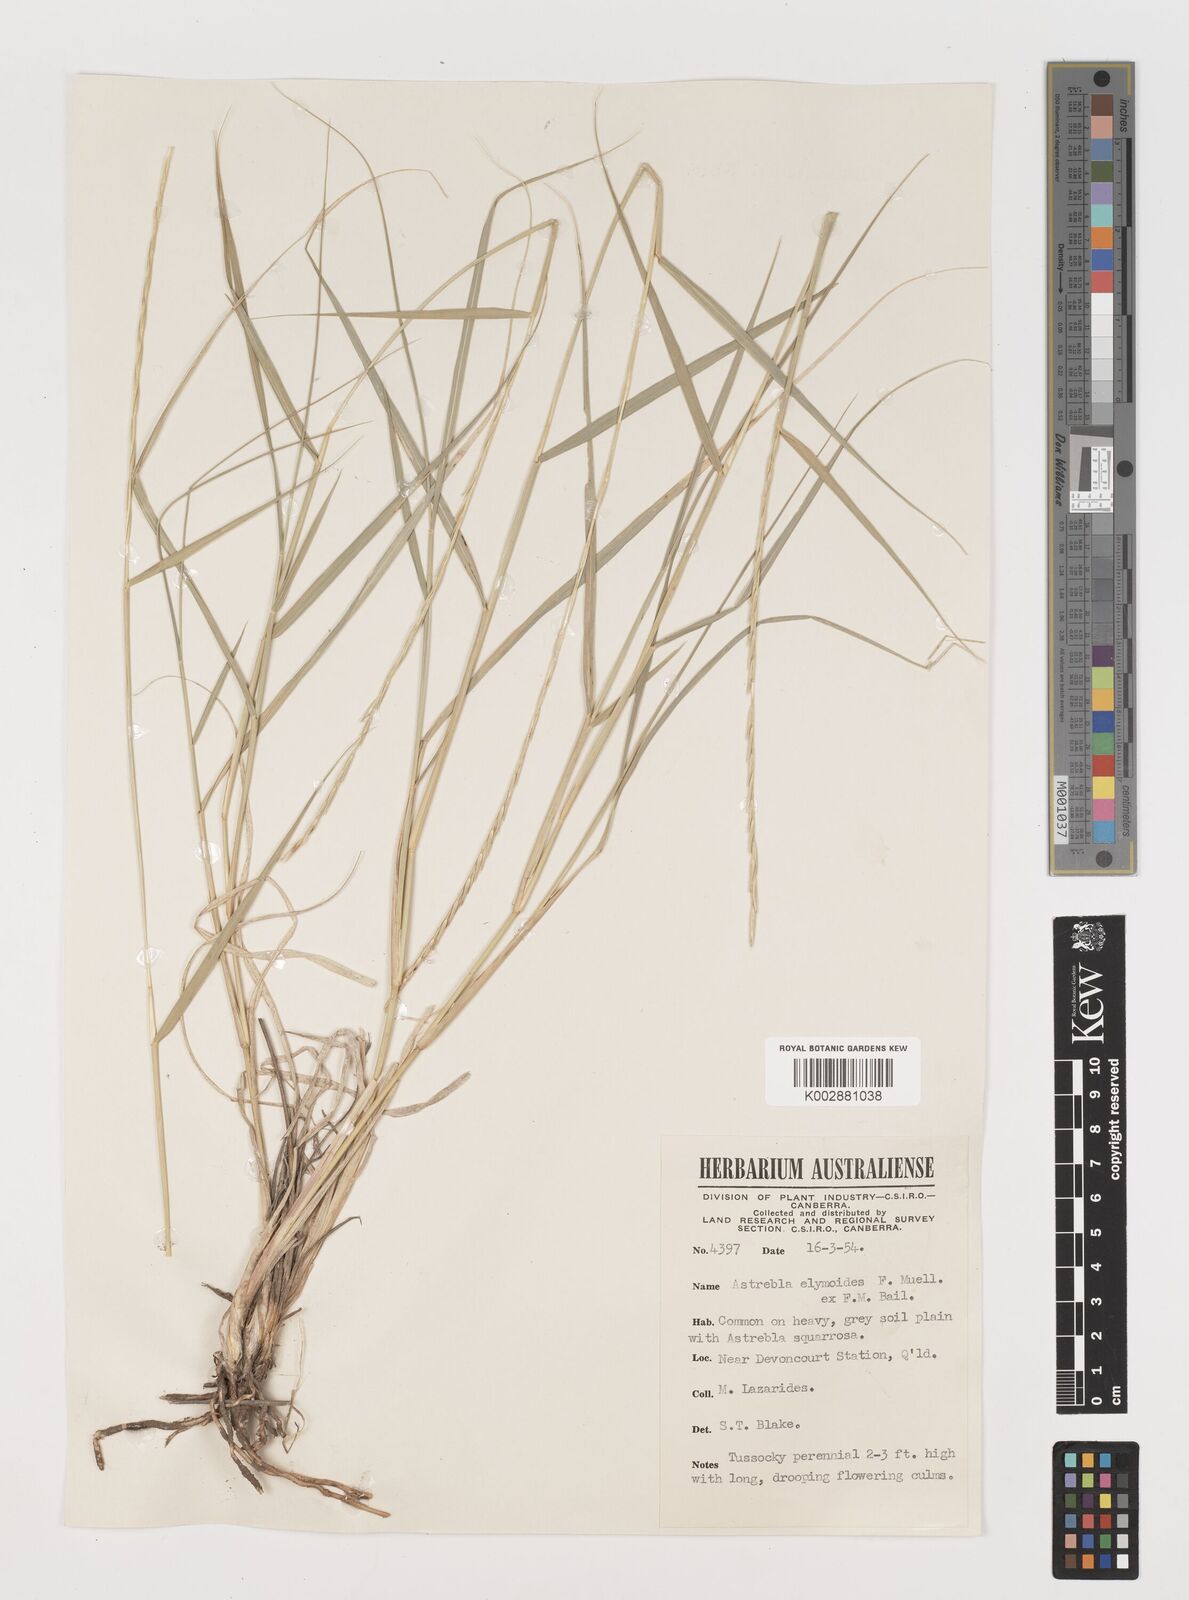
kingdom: Plantae
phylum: Tracheophyta
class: Liliopsida
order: Poales
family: Poaceae
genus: Astrebla
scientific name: Astrebla elymoides
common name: Hoop mitchell grass
